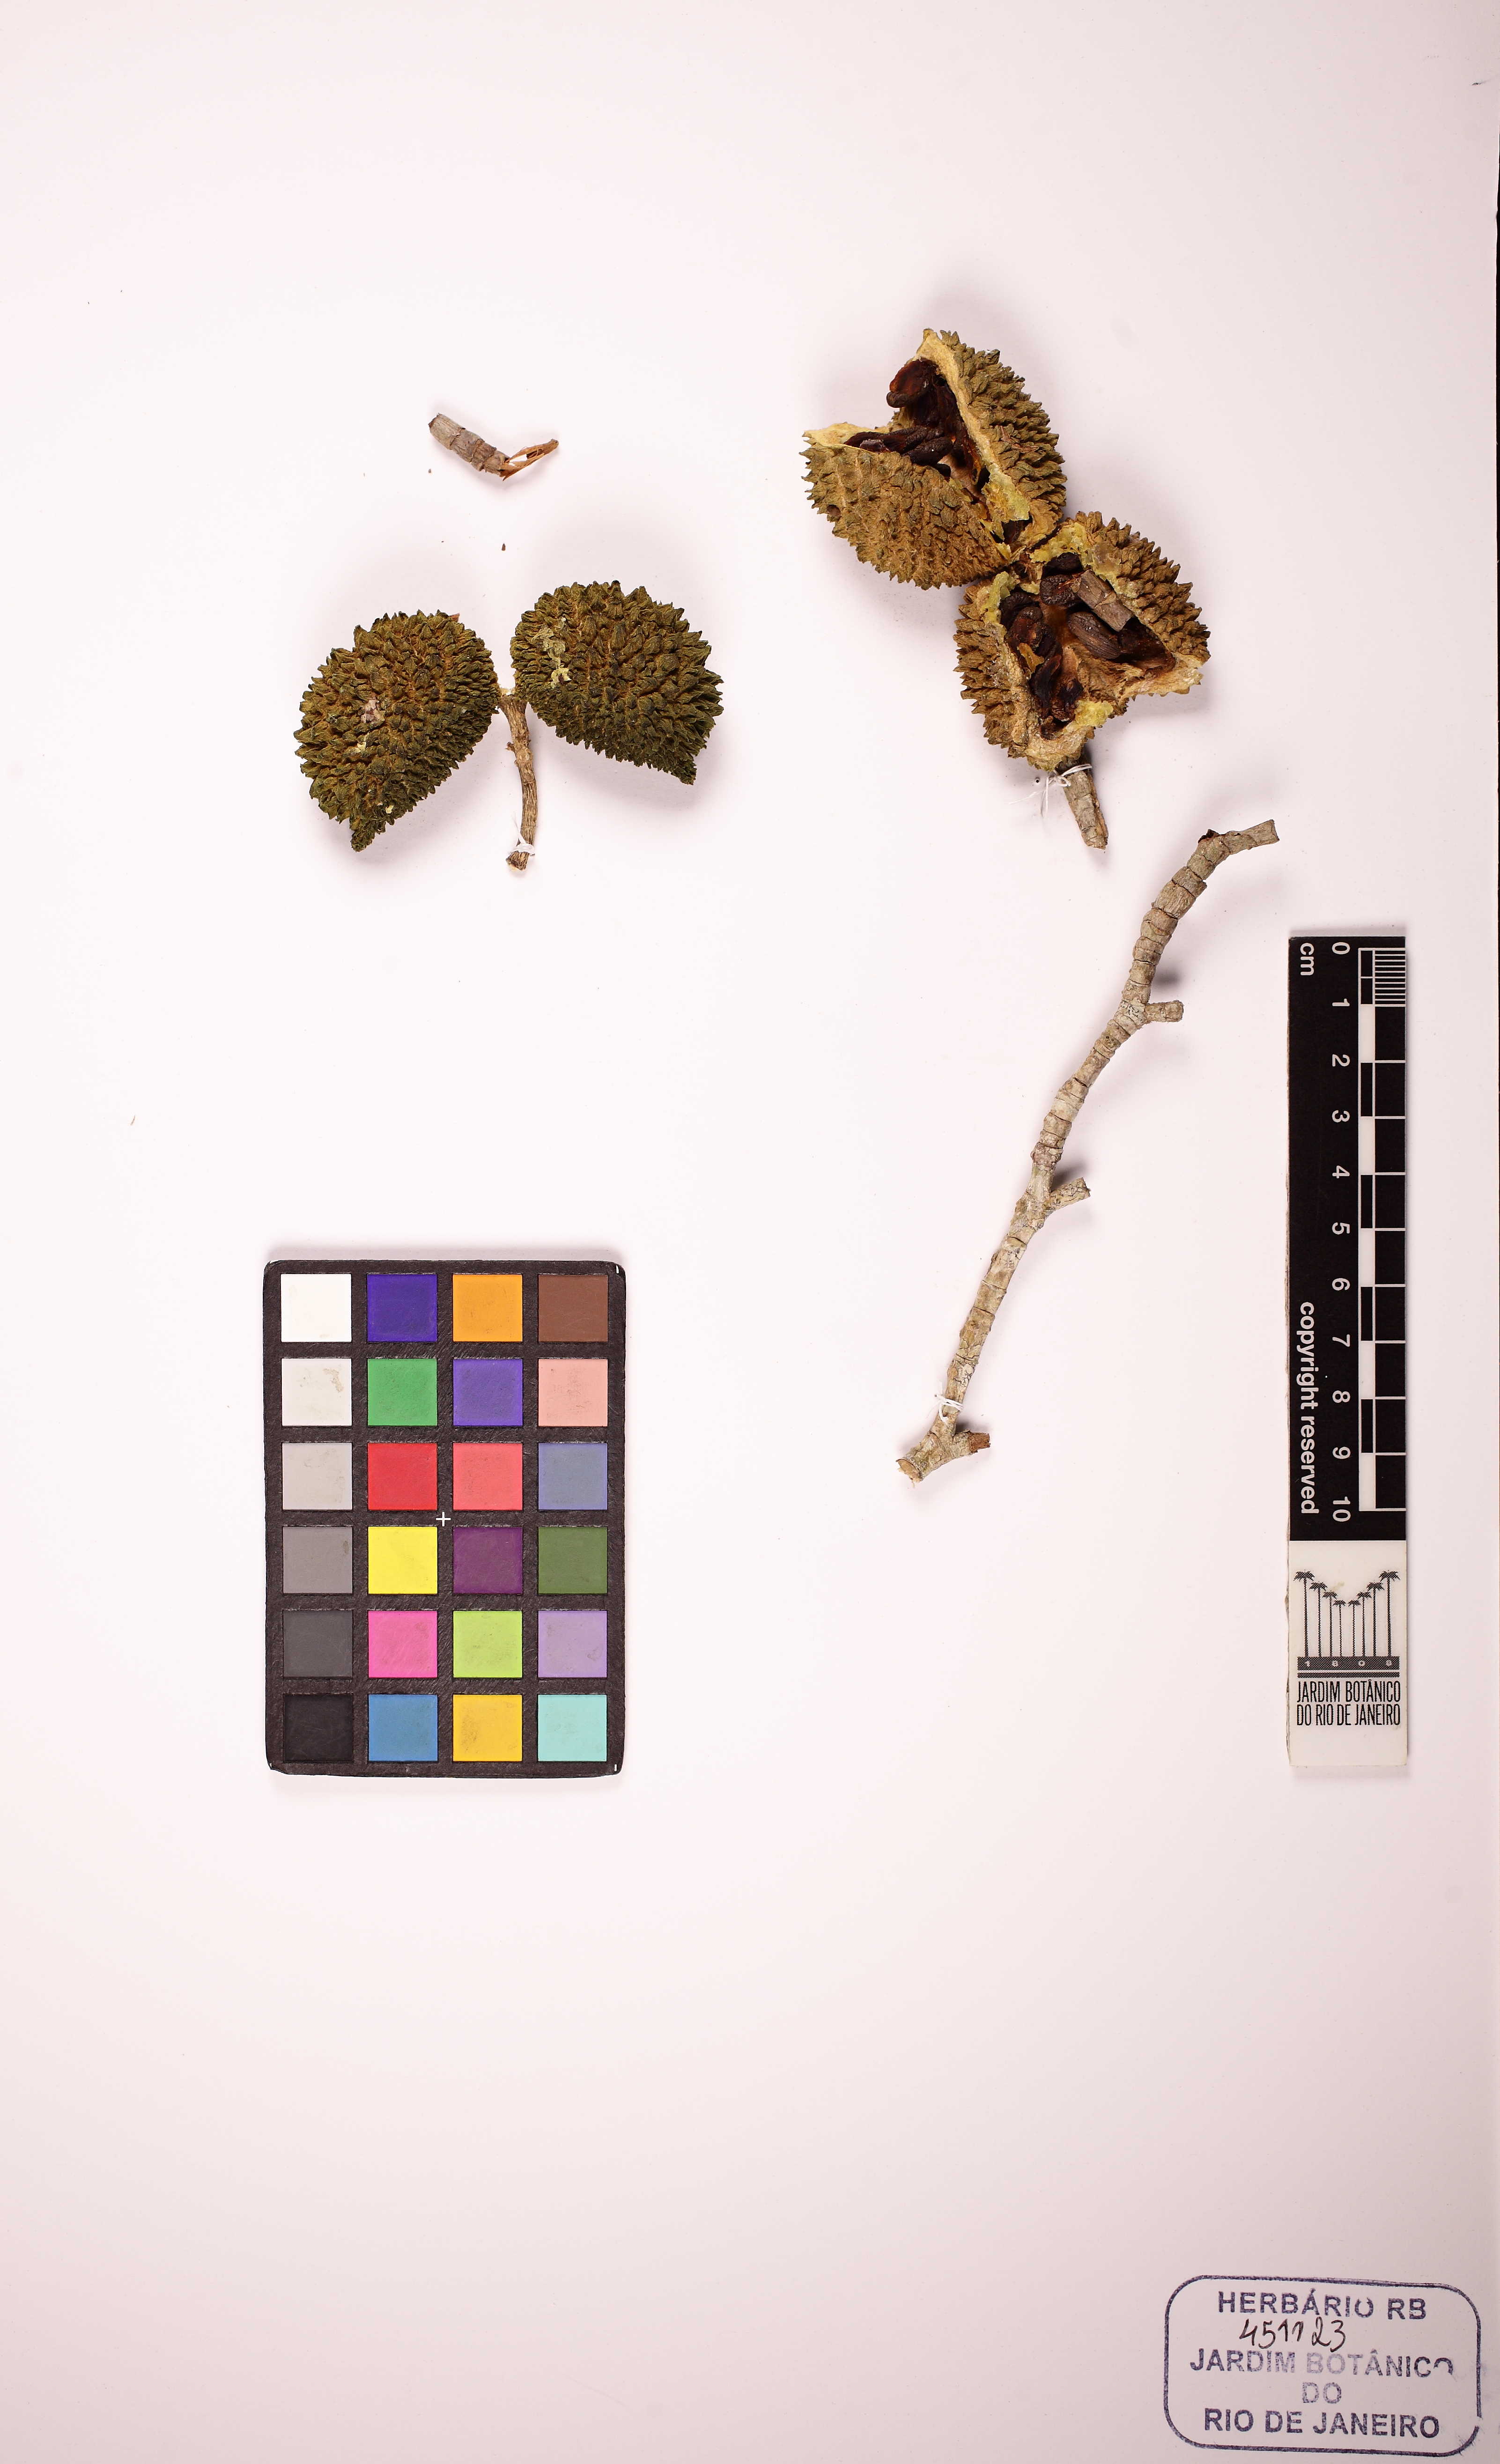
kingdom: Plantae
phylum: Tracheophyta
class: Magnoliopsida
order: Gentianales
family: Apocynaceae
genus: Tabernaemontana
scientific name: Tabernaemontana salzmannii
